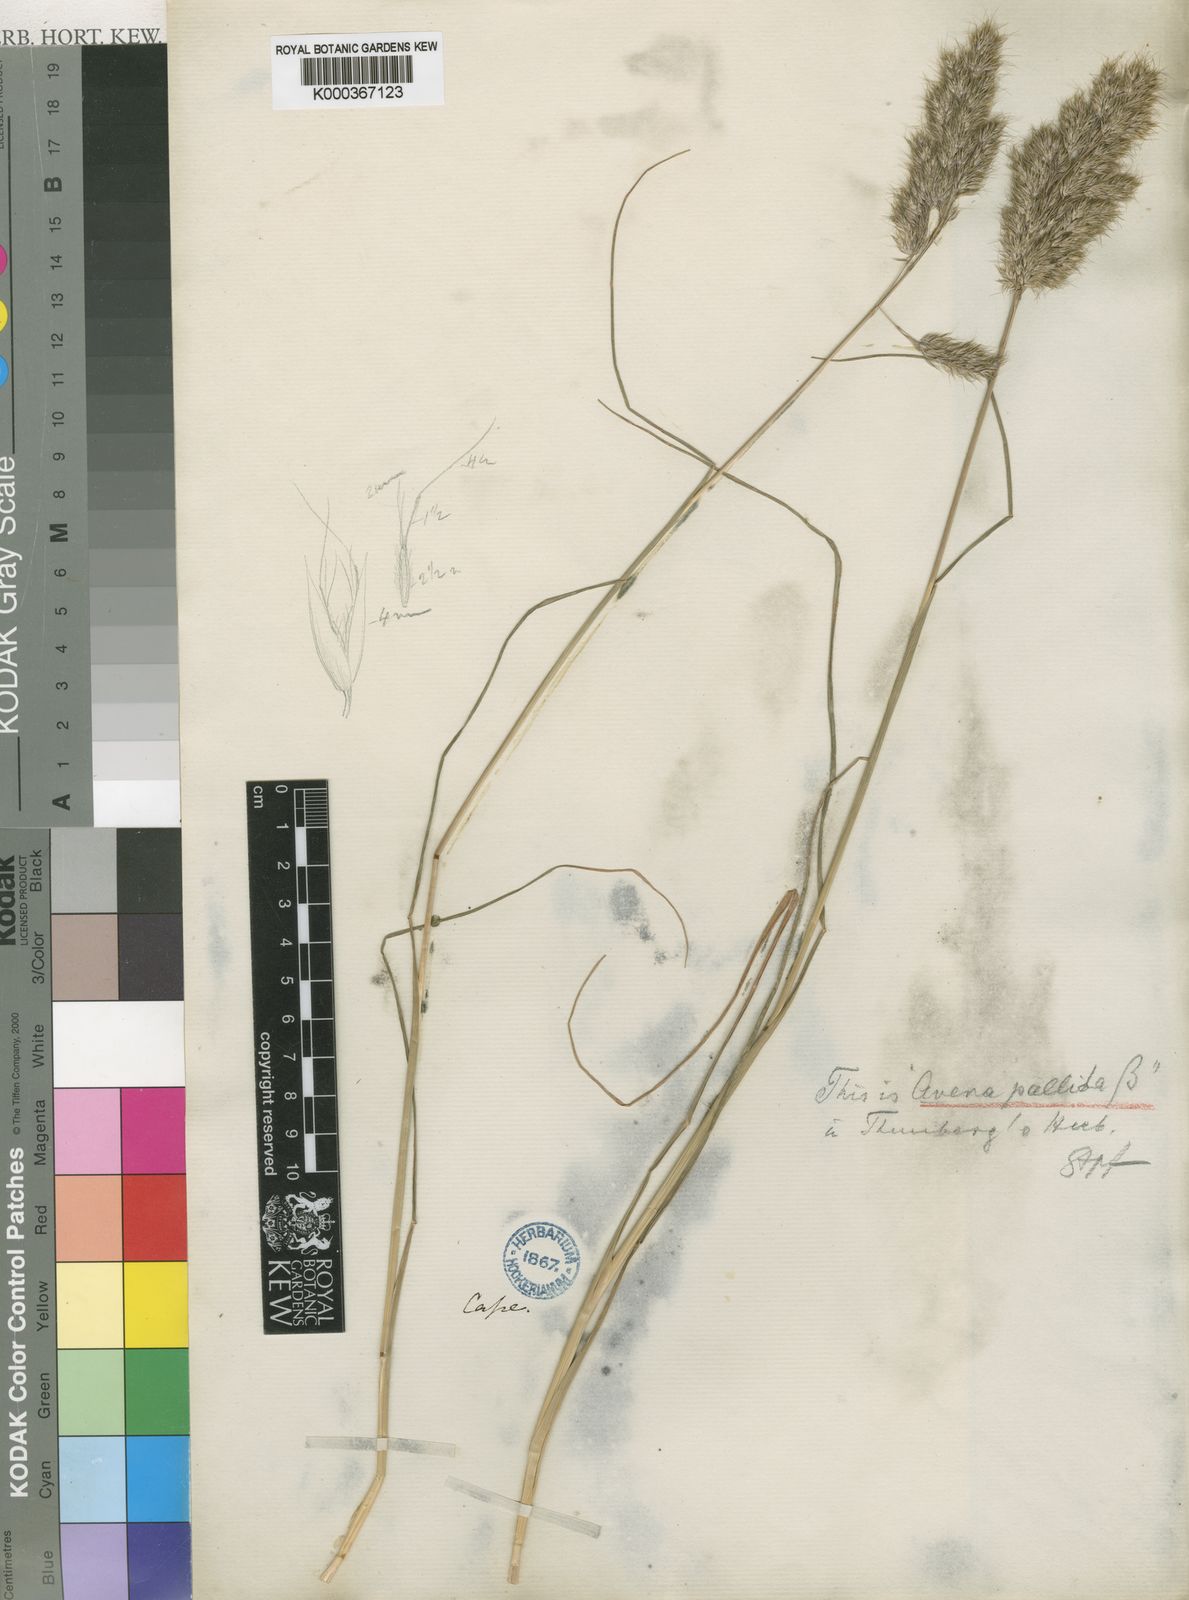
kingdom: Plantae
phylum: Tracheophyta
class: Liliopsida
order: Poales
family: Poaceae
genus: Pentameris
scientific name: Pentameris triseta
